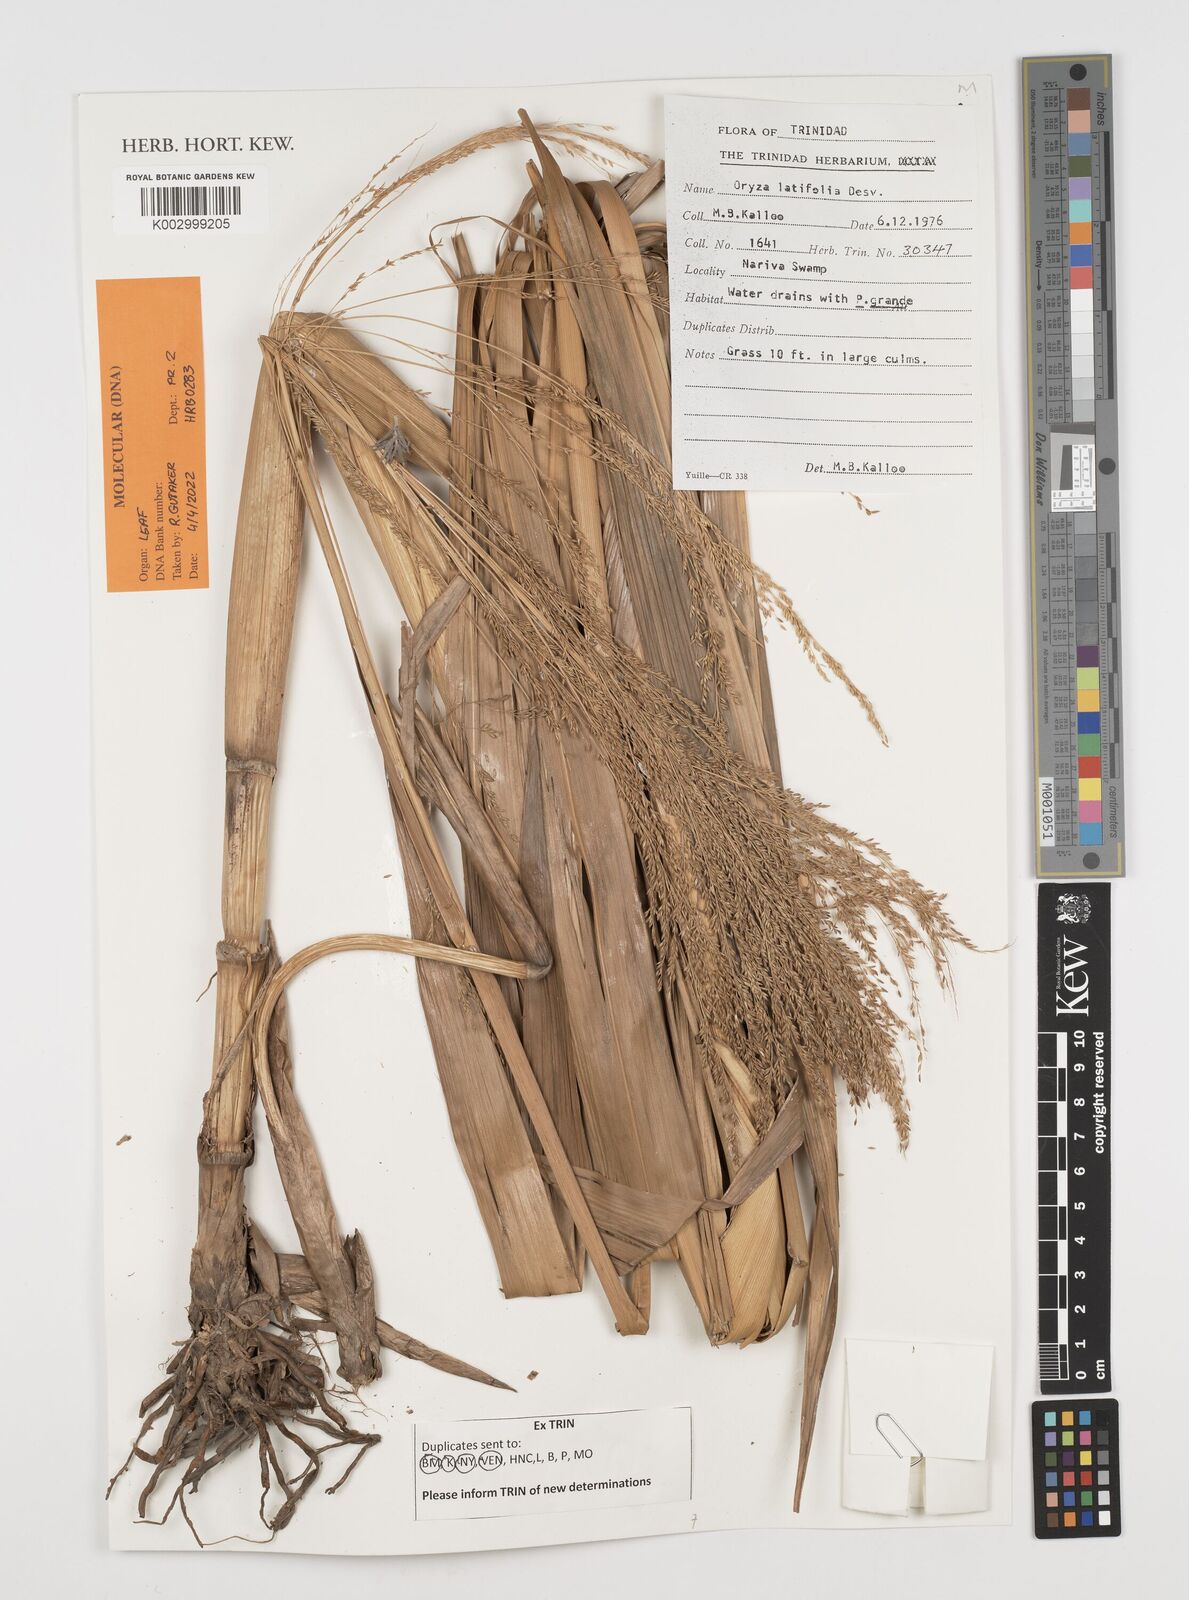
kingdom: Plantae
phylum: Tracheophyta
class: Liliopsida
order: Poales
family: Poaceae
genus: Oryza
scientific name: Oryza latifolia
